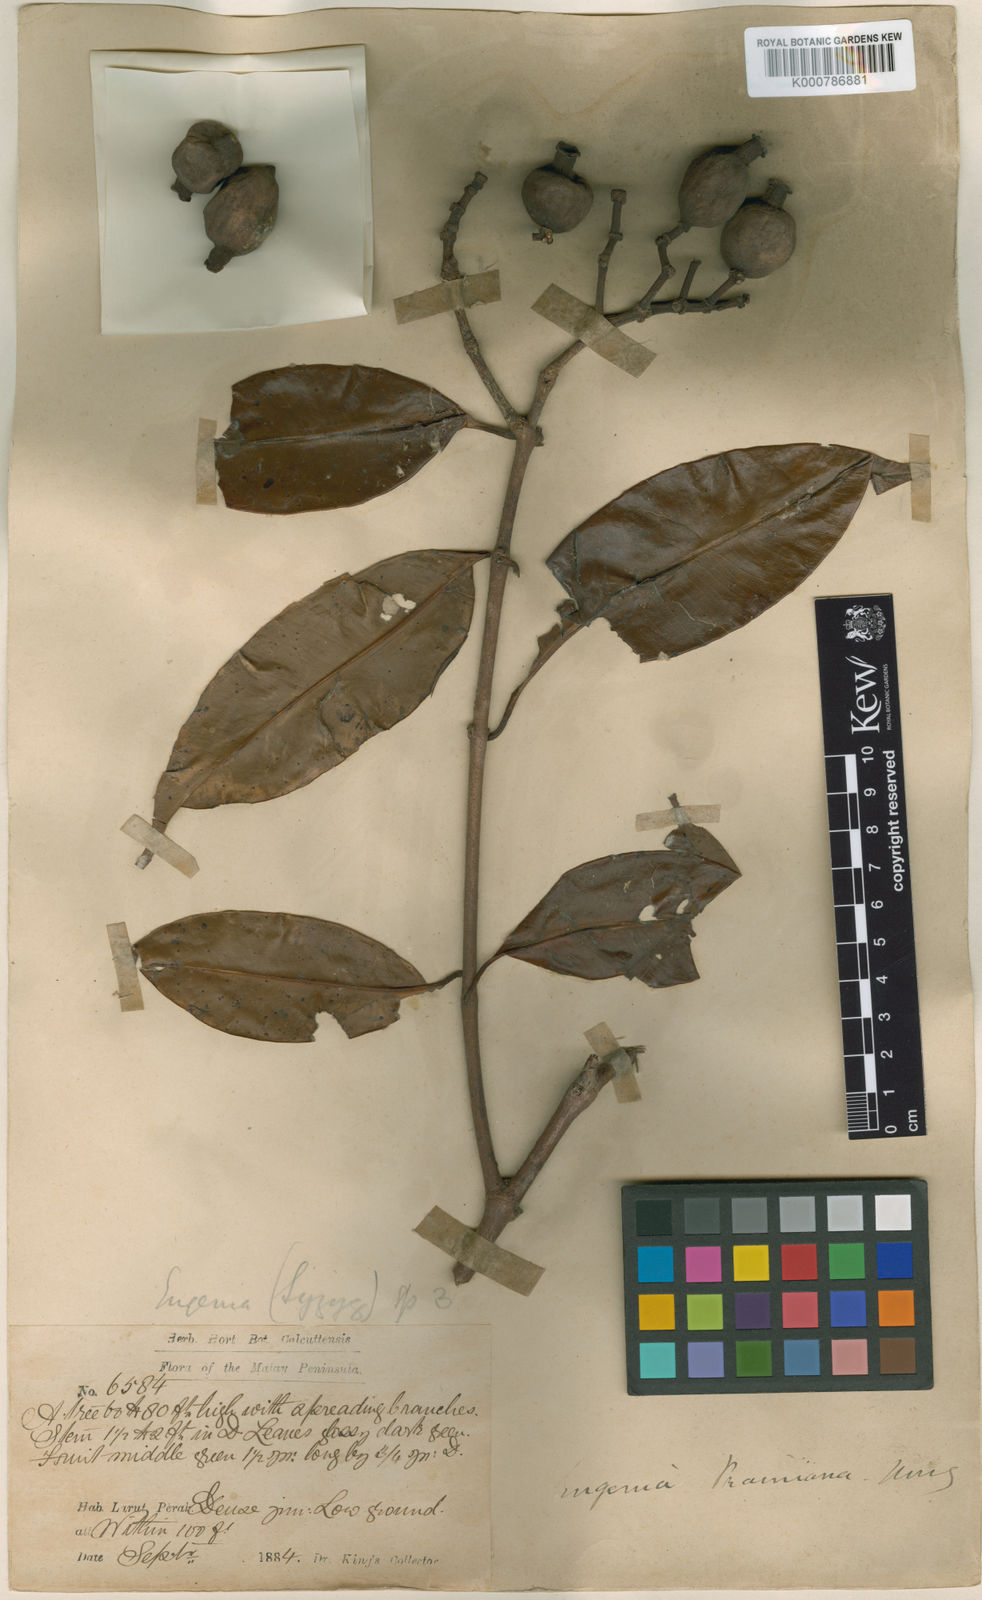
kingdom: Plantae
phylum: Tracheophyta
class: Magnoliopsida
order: Myrtales
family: Myrtaceae
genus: Syzygium
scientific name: Syzygium praineanum
